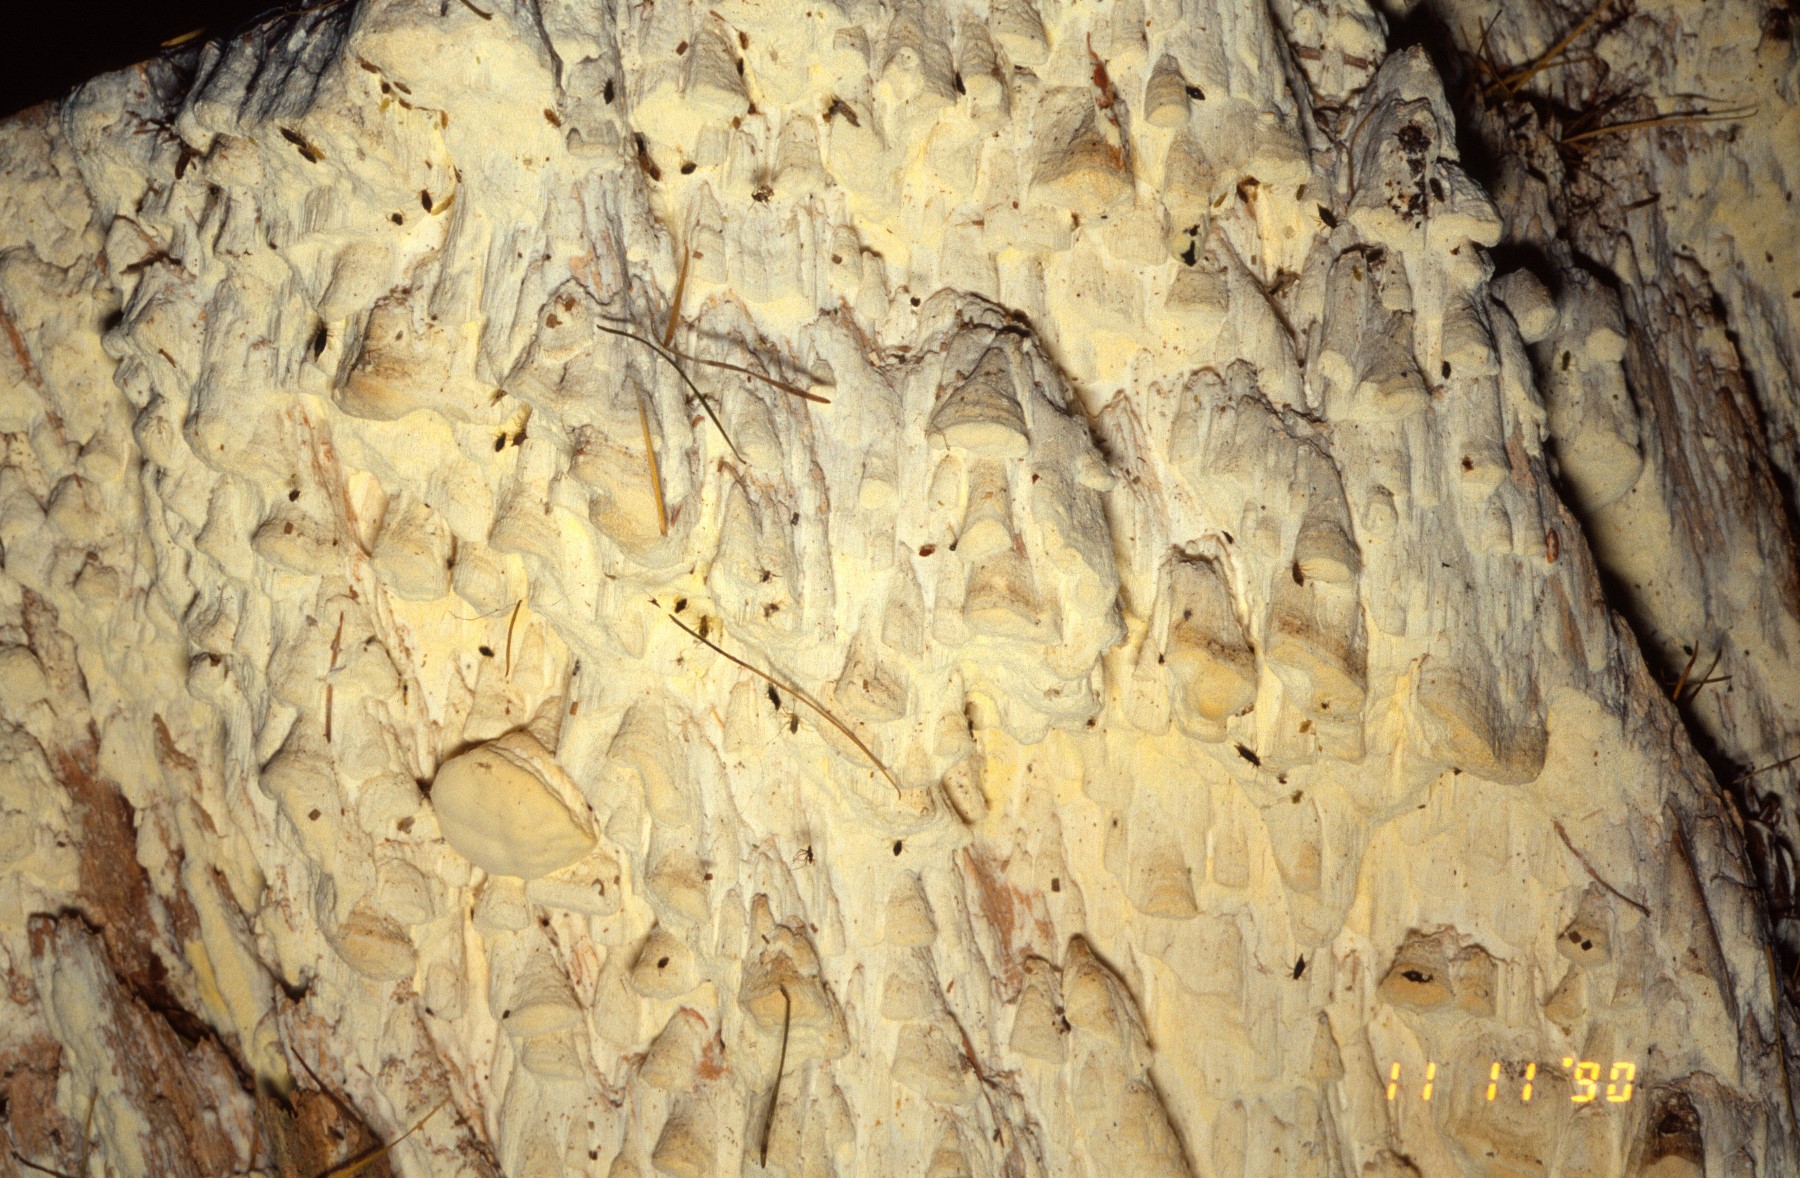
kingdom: Fungi
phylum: Basidiomycota
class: Agaricomycetes
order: Polyporales
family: Fomitopsidaceae
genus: Daedalea
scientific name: Daedalea xantha
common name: gul sejporesvamp
